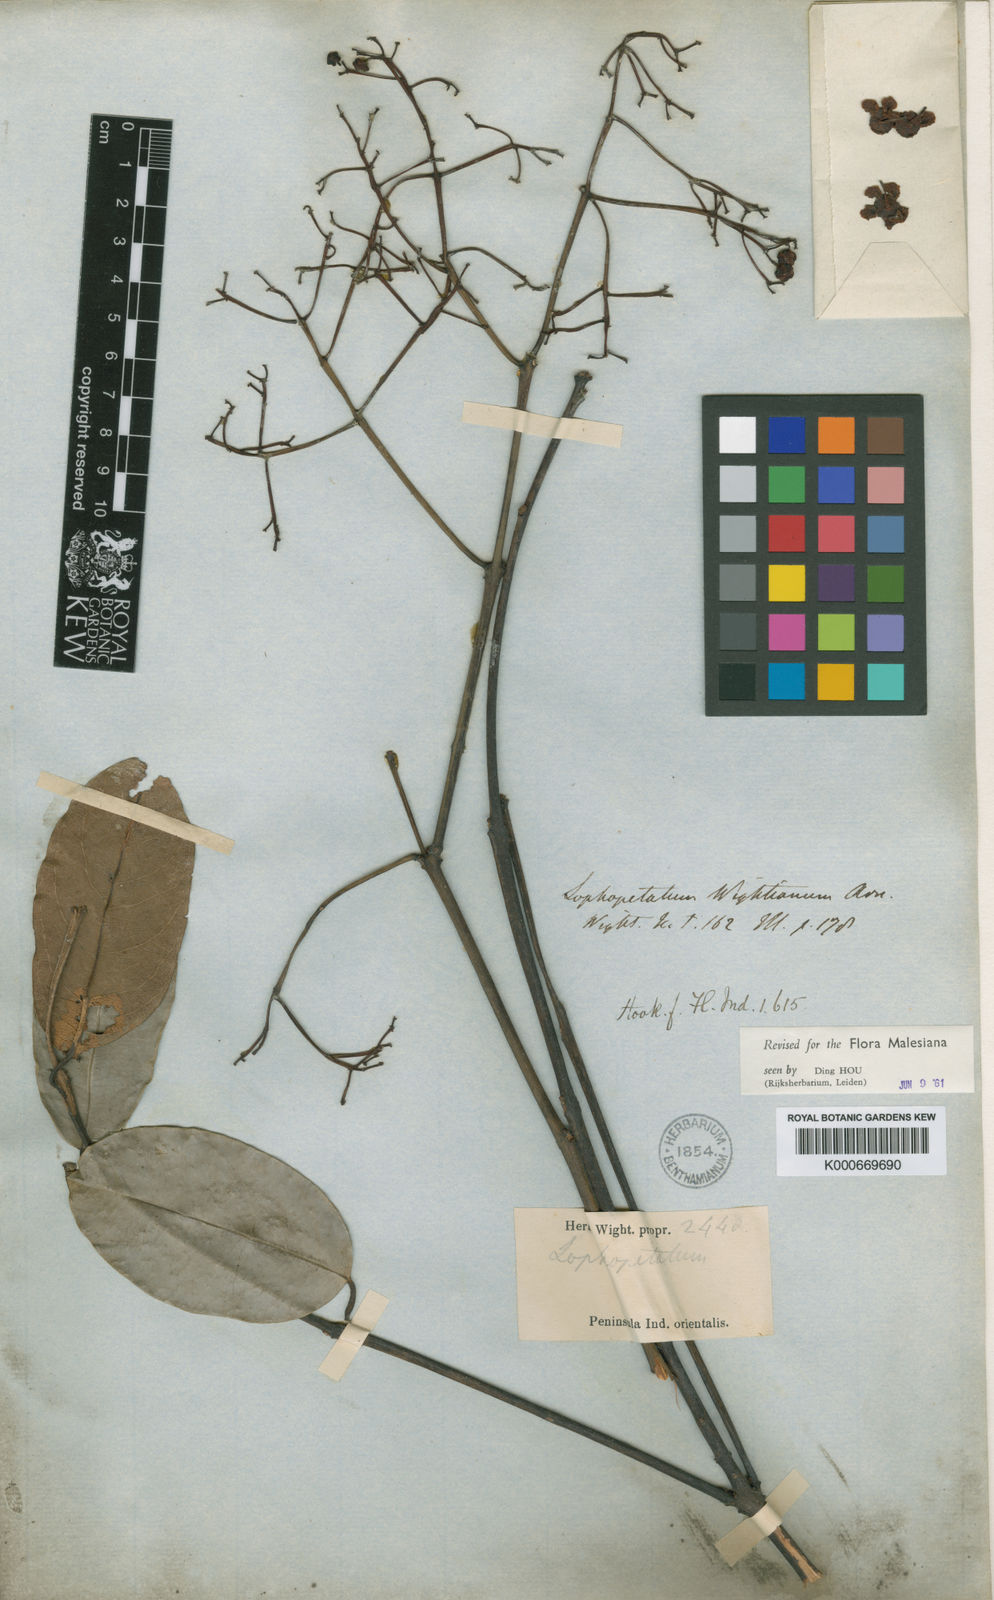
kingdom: Plantae
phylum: Tracheophyta
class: Magnoliopsida
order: Celastrales
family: Celastraceae
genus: Lophopetalum
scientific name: Lophopetalum wightianum
